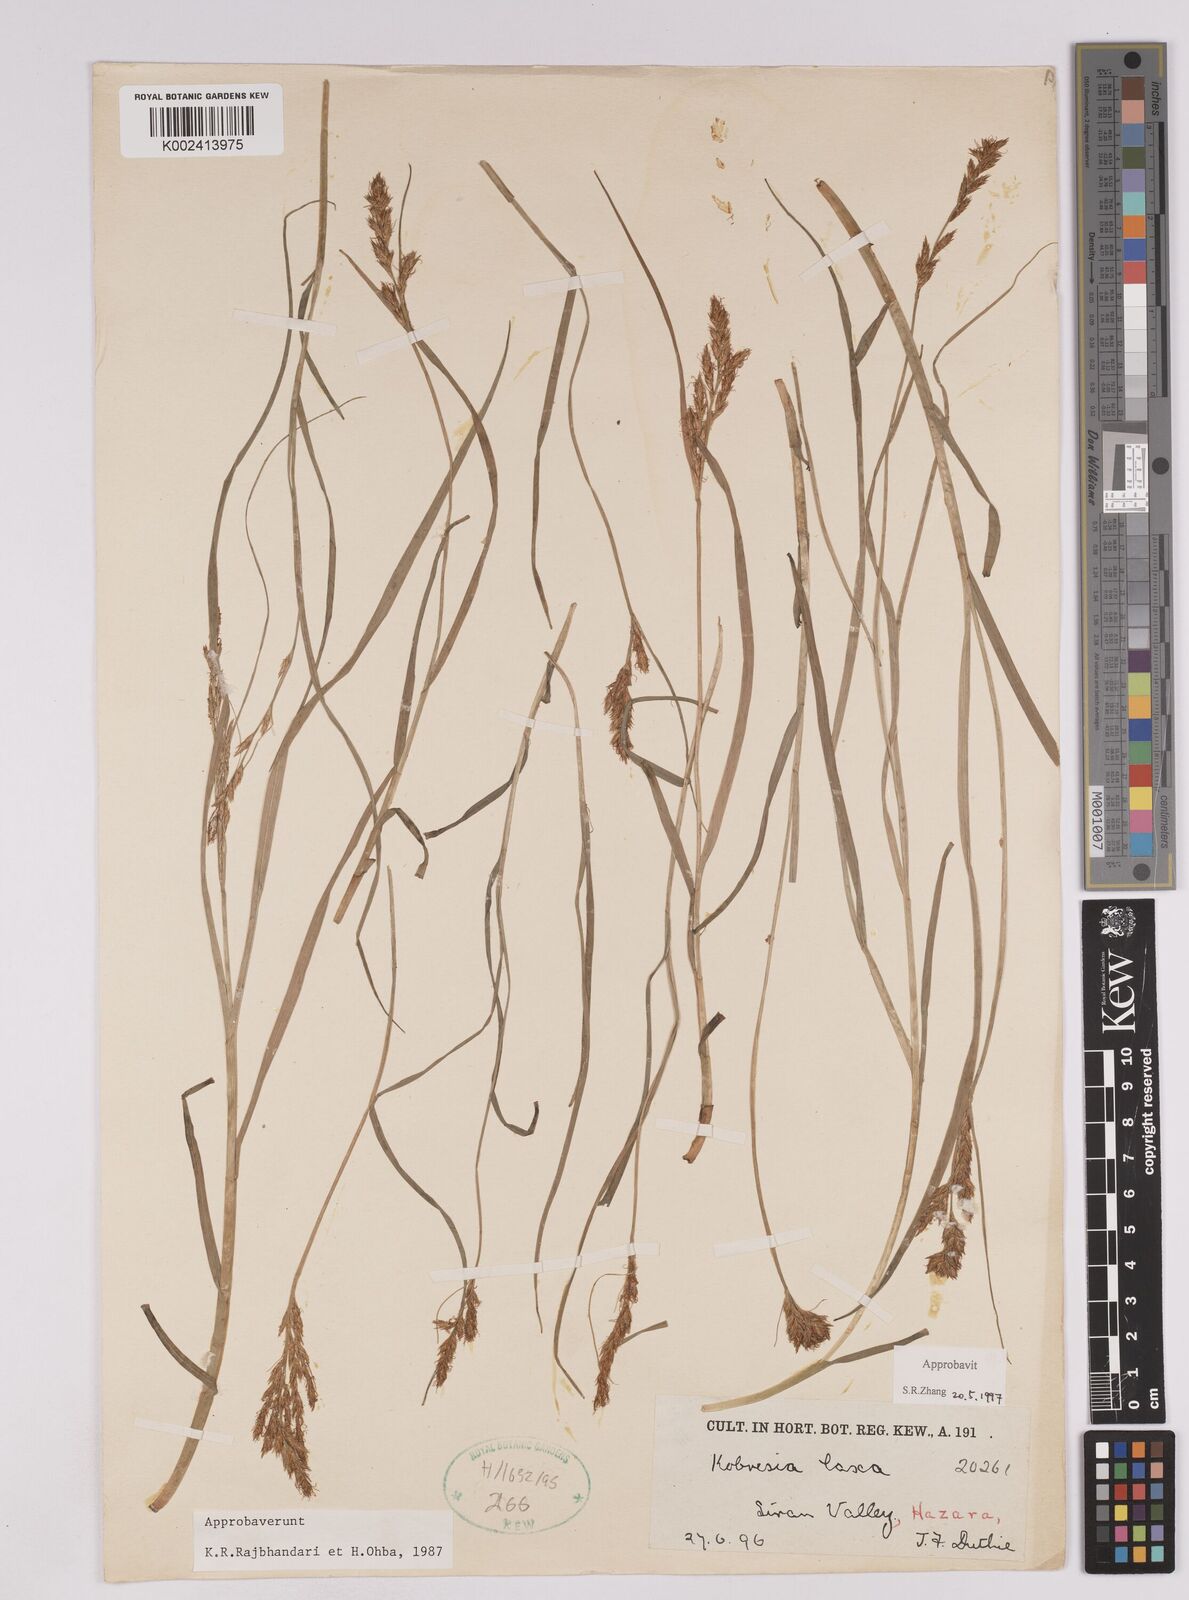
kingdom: Plantae
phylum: Tracheophyta
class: Liliopsida
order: Poales
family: Cyperaceae
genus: Carex
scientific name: Carex pseudolaxa
